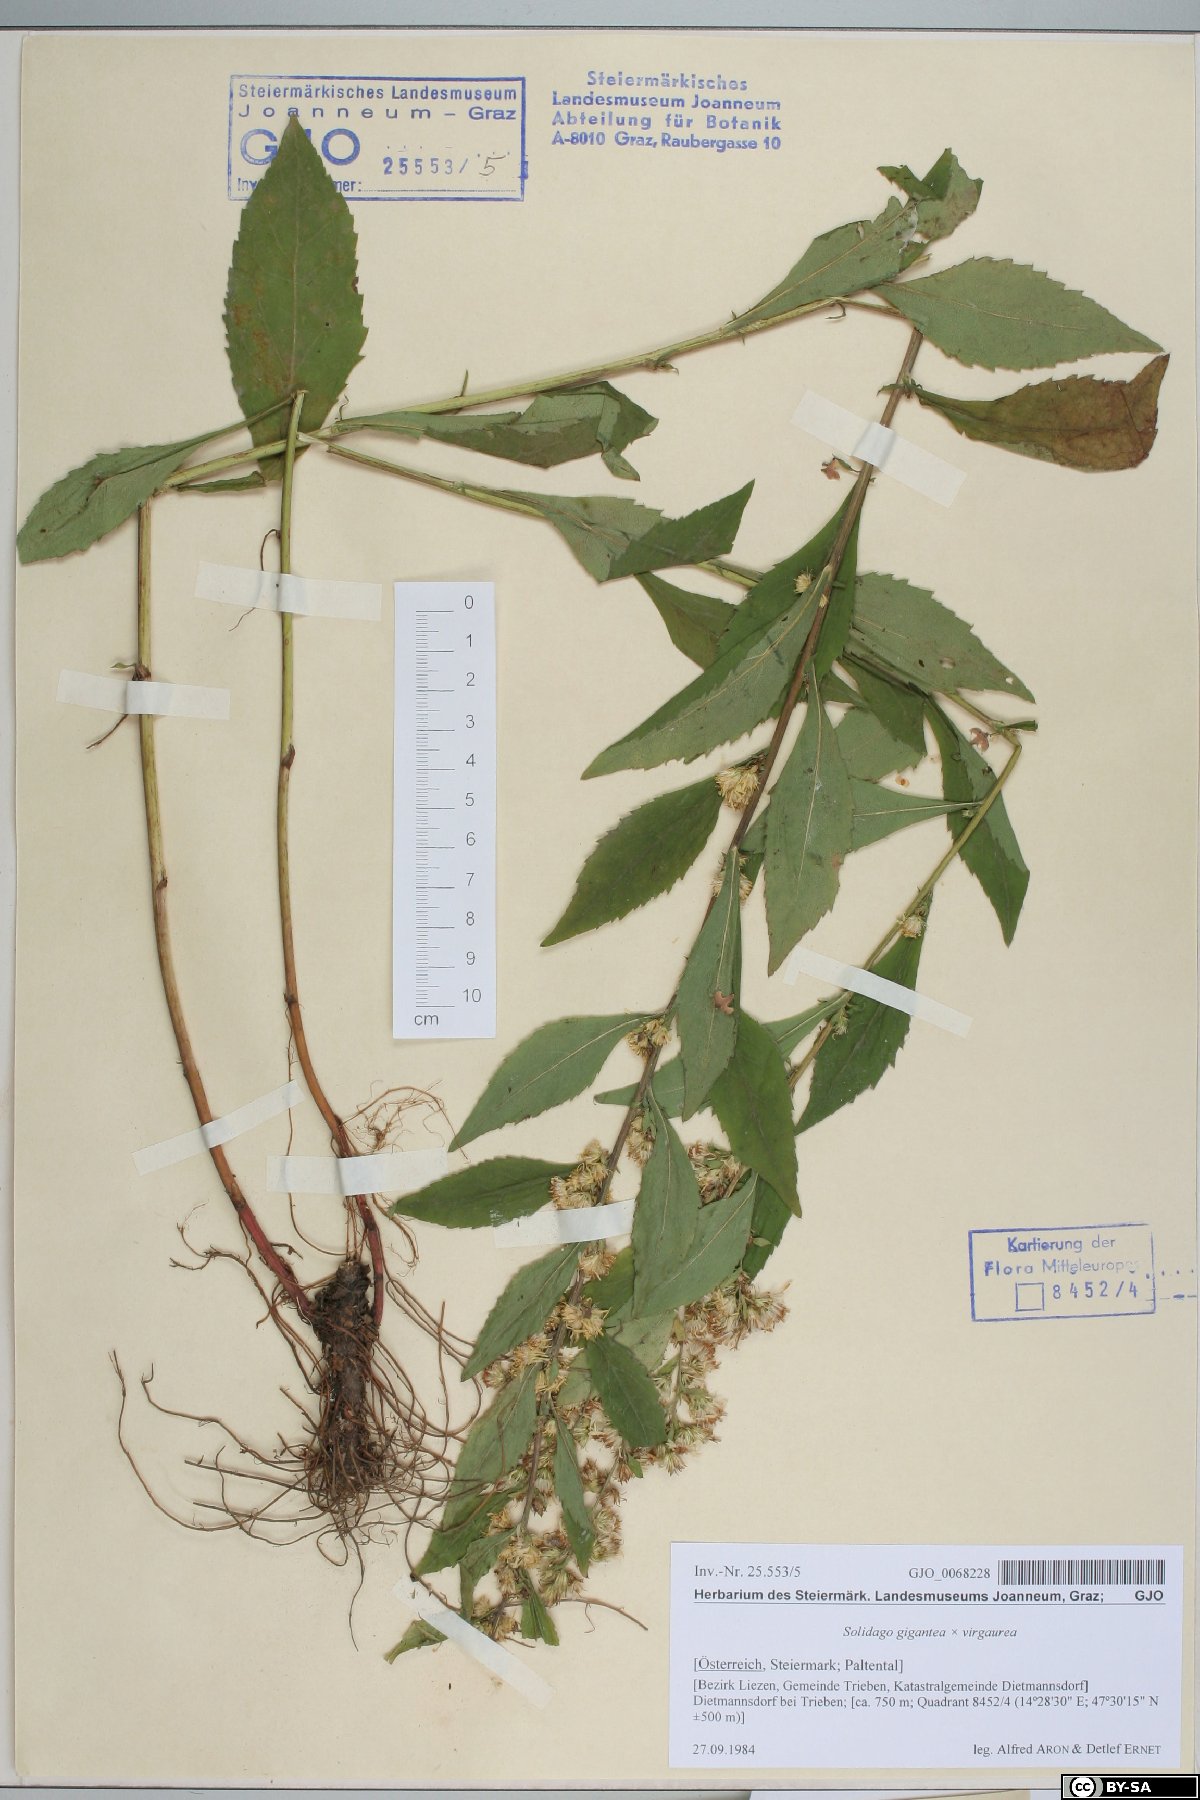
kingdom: Plantae
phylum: Tracheophyta
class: Magnoliopsida
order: Asterales
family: Asteraceae
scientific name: Asteraceae
